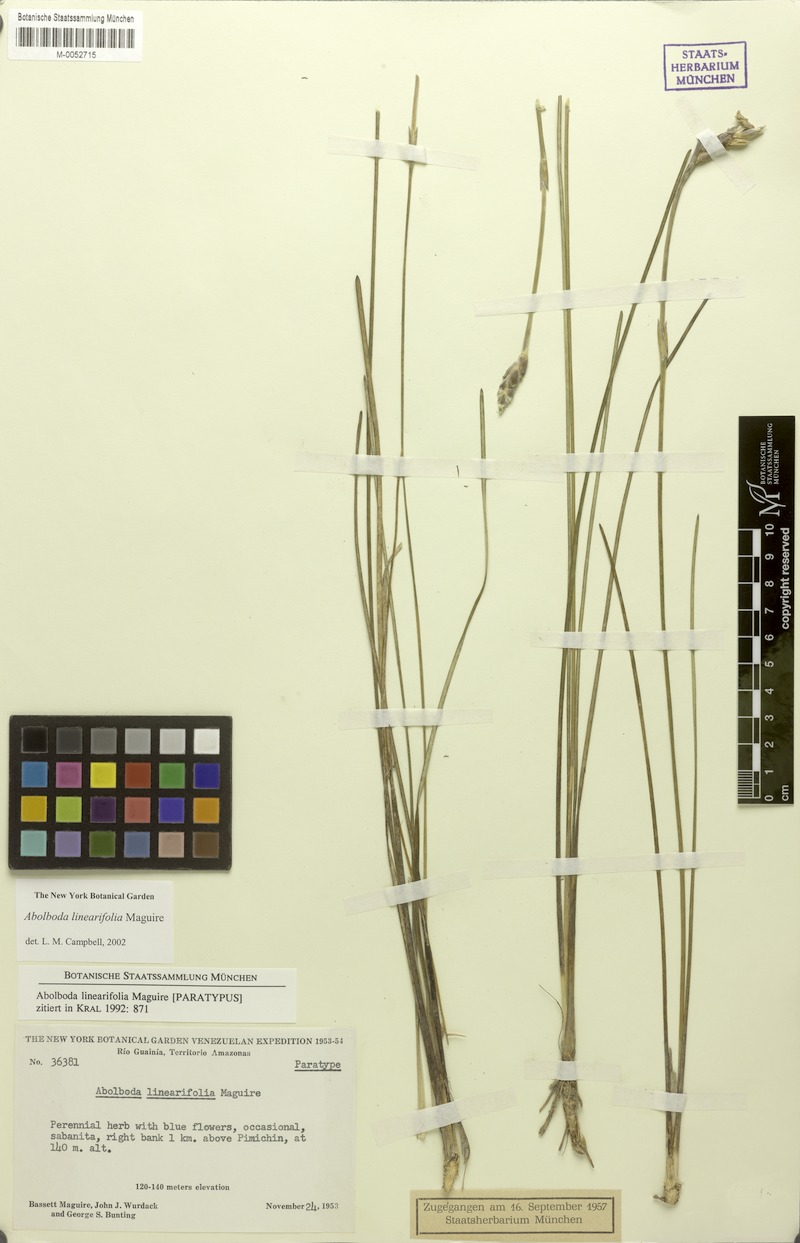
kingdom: Plantae
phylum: Tracheophyta
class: Liliopsida
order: Poales
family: Xyridaceae
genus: Abolboda
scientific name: Abolboda linearifolia
